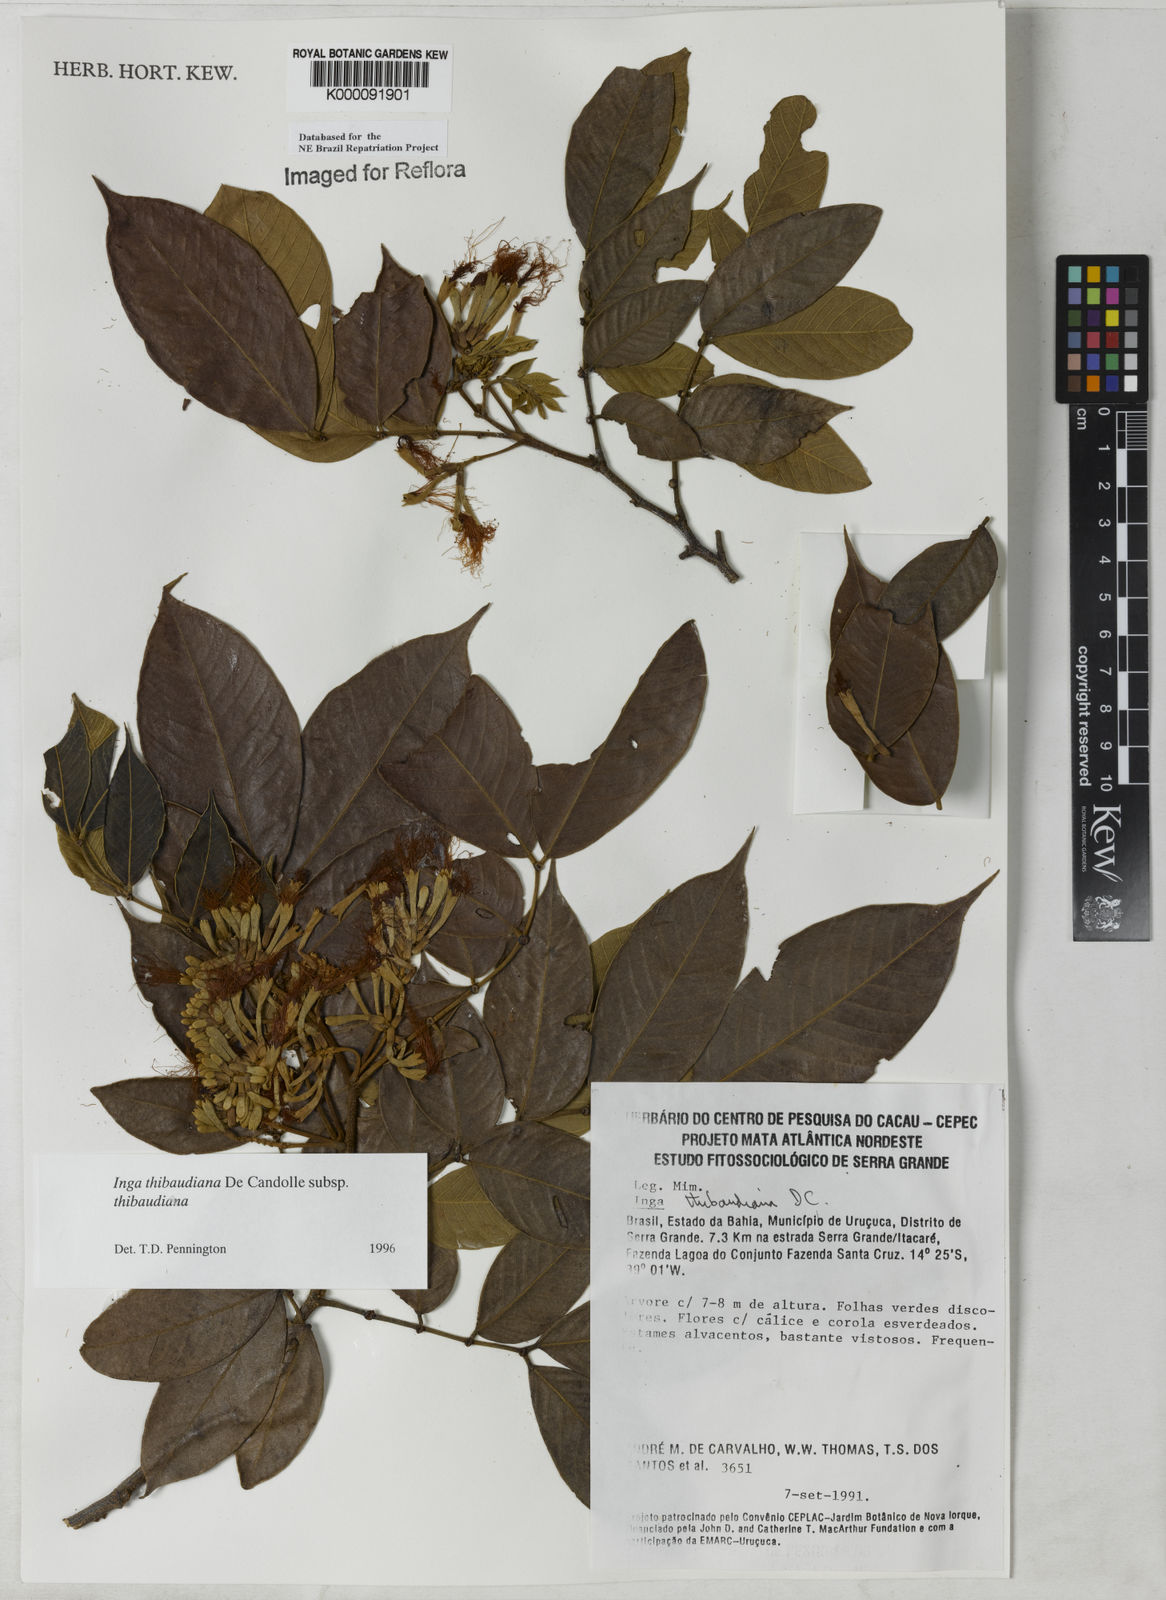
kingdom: Plantae
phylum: Tracheophyta
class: Magnoliopsida
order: Fabales
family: Fabaceae
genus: Inga
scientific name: Inga thibaudiana
